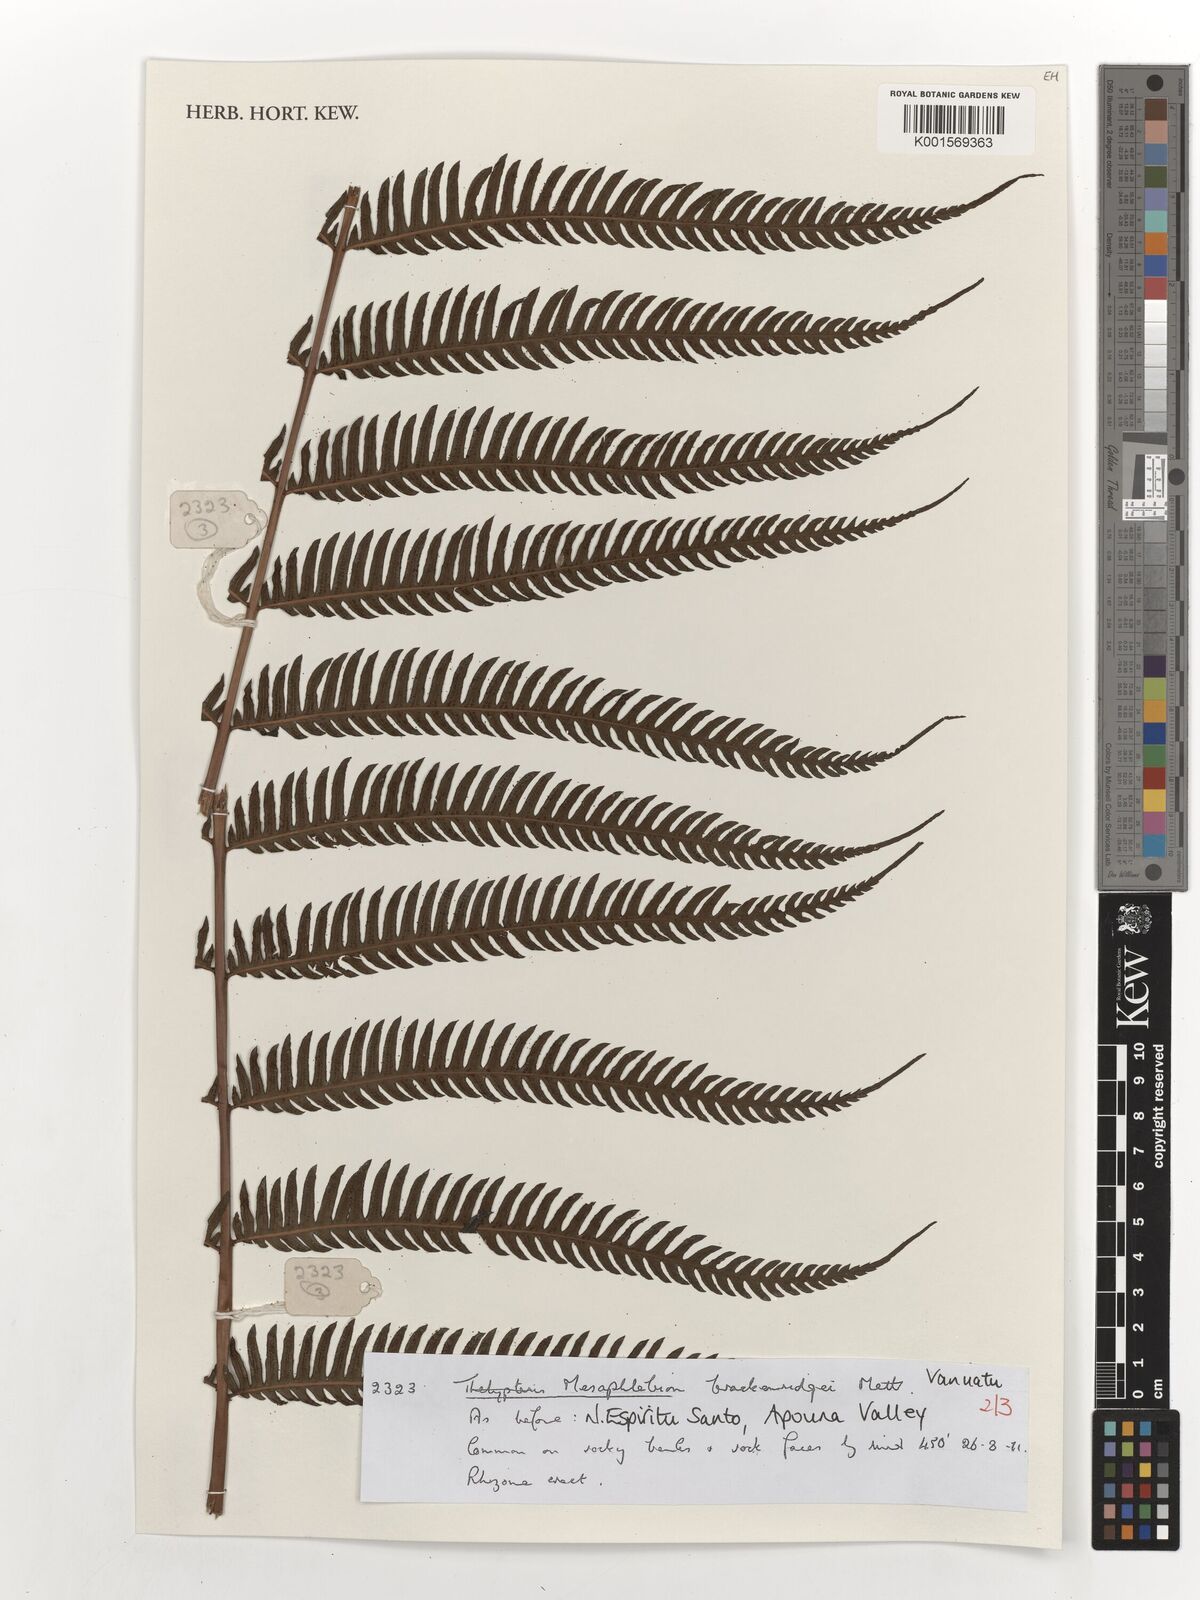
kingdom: Plantae
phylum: Tracheophyta
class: Polypodiopsida
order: Polypodiales
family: Thelypteridaceae
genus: Mesophlebion
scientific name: Mesophlebion
